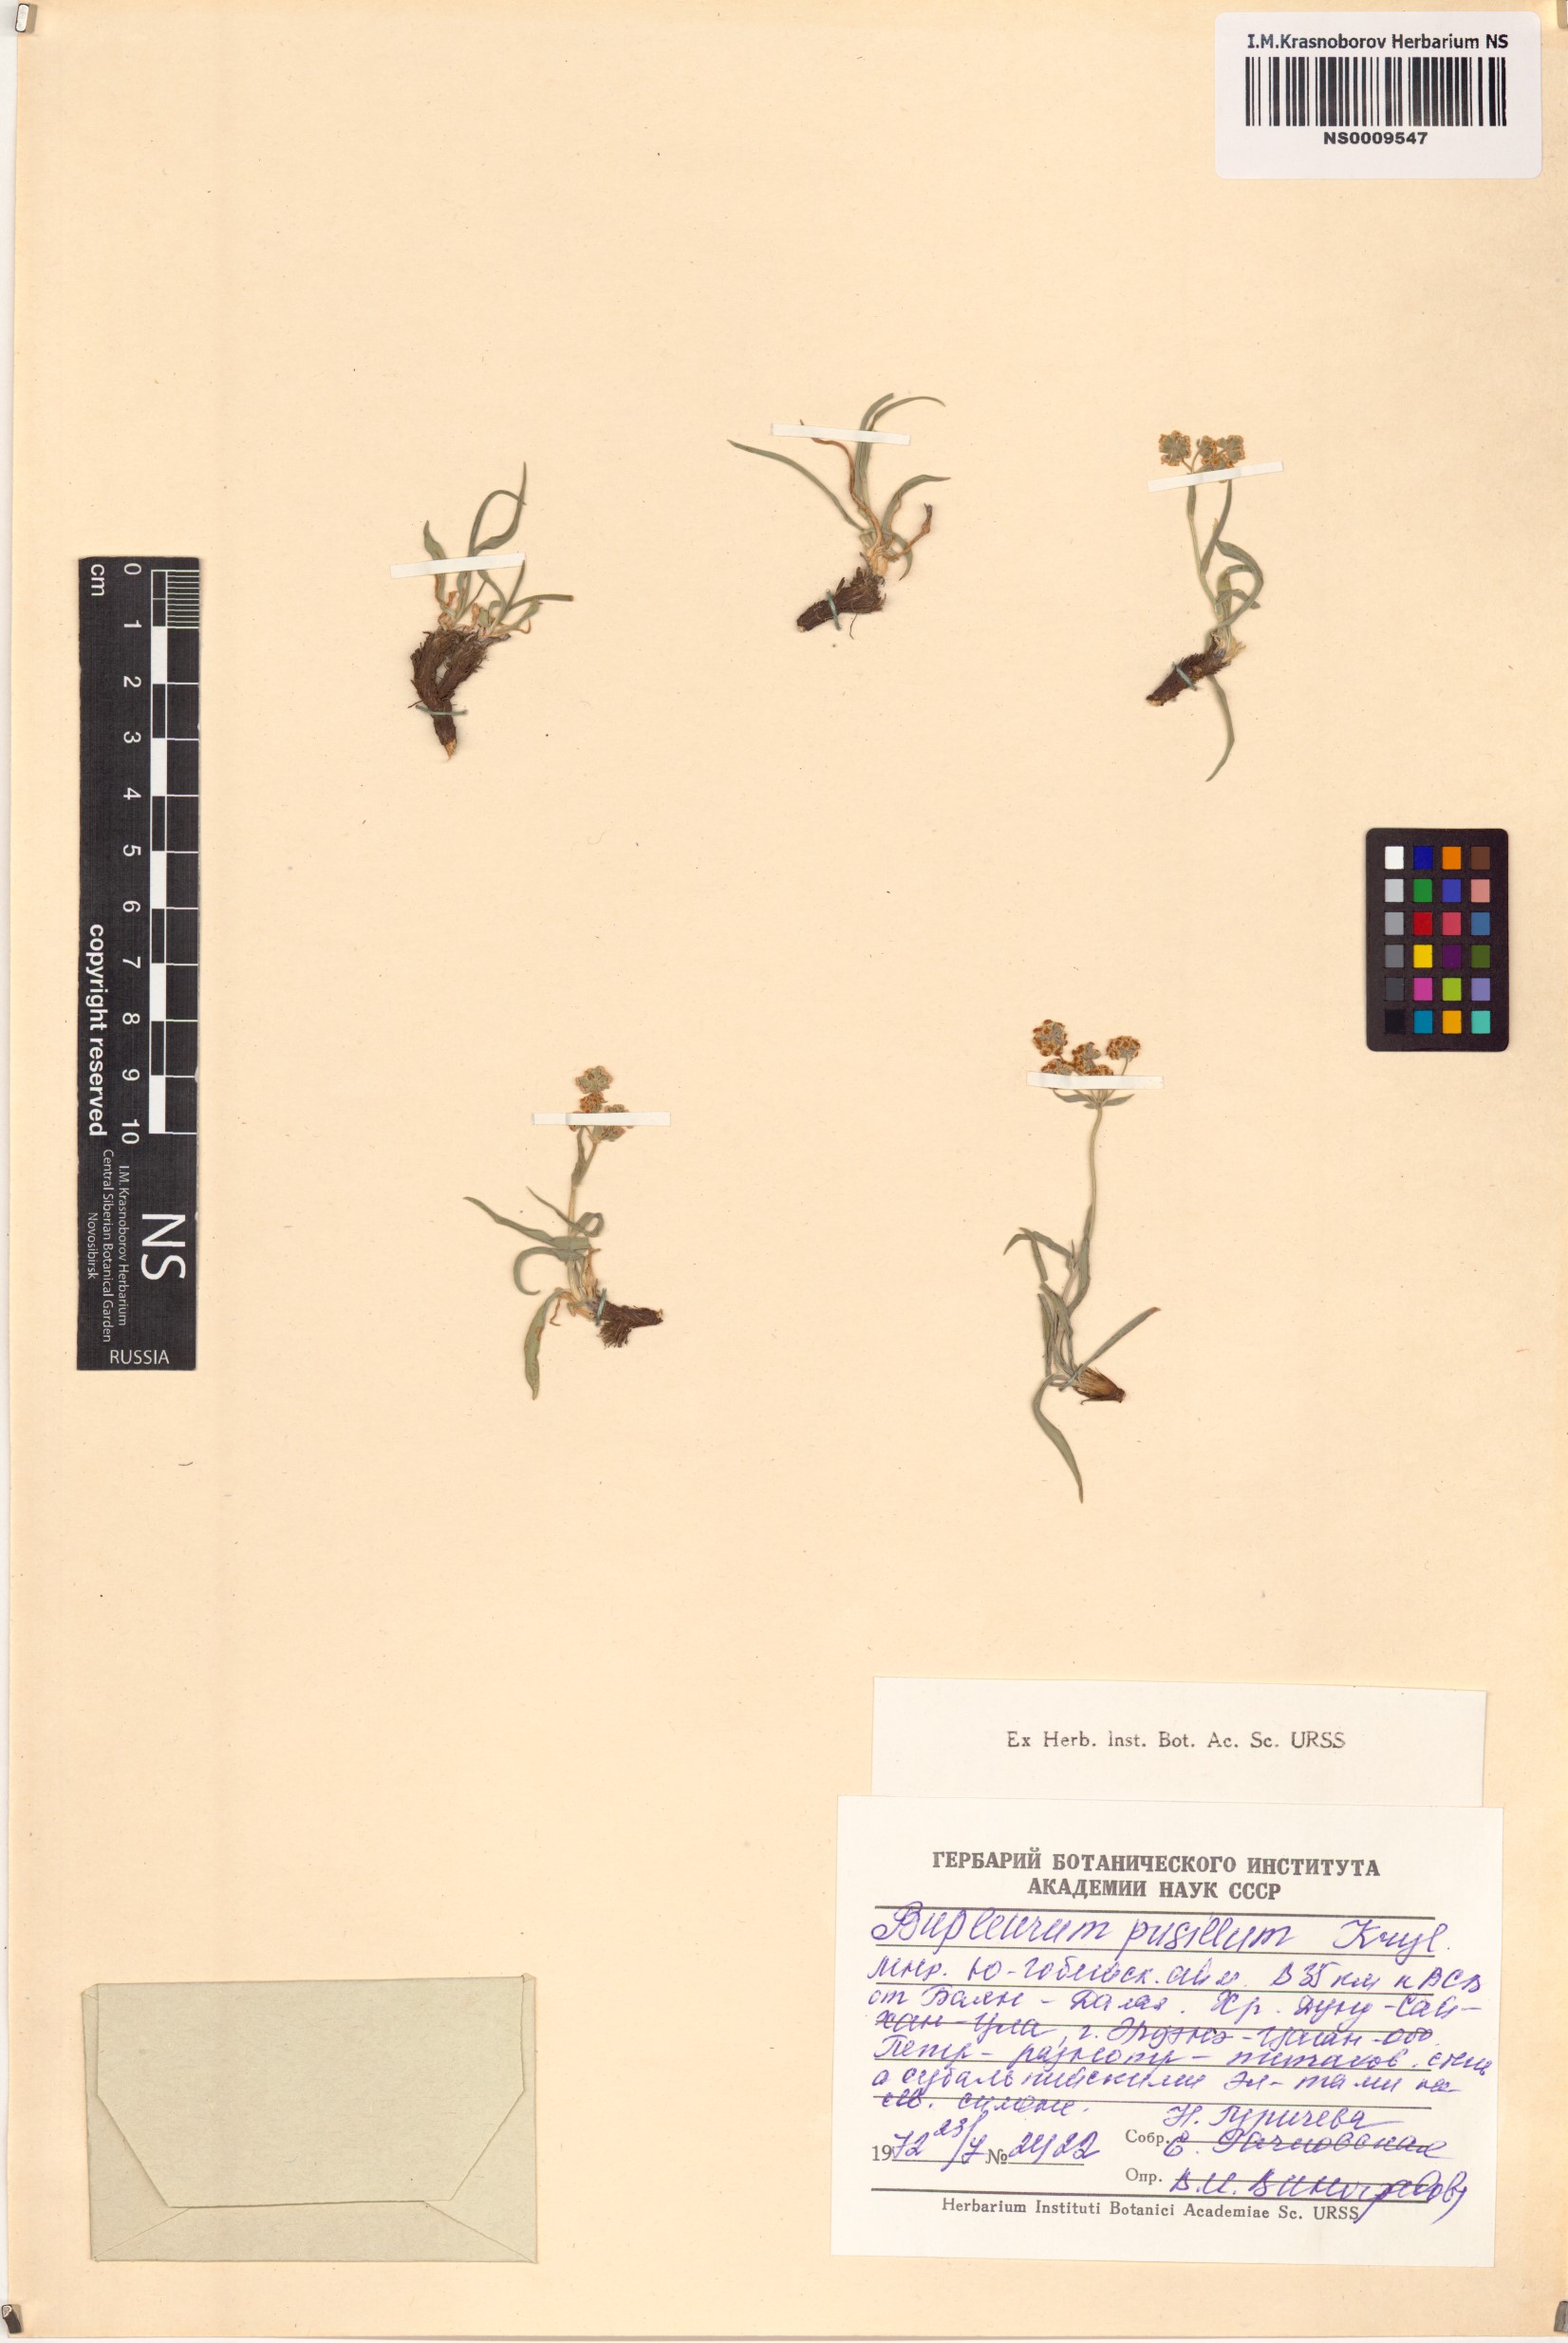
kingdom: Plantae
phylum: Tracheophyta
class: Magnoliopsida
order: Apiales
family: Apiaceae
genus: Bupleurum
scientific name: Bupleurum bicaule
